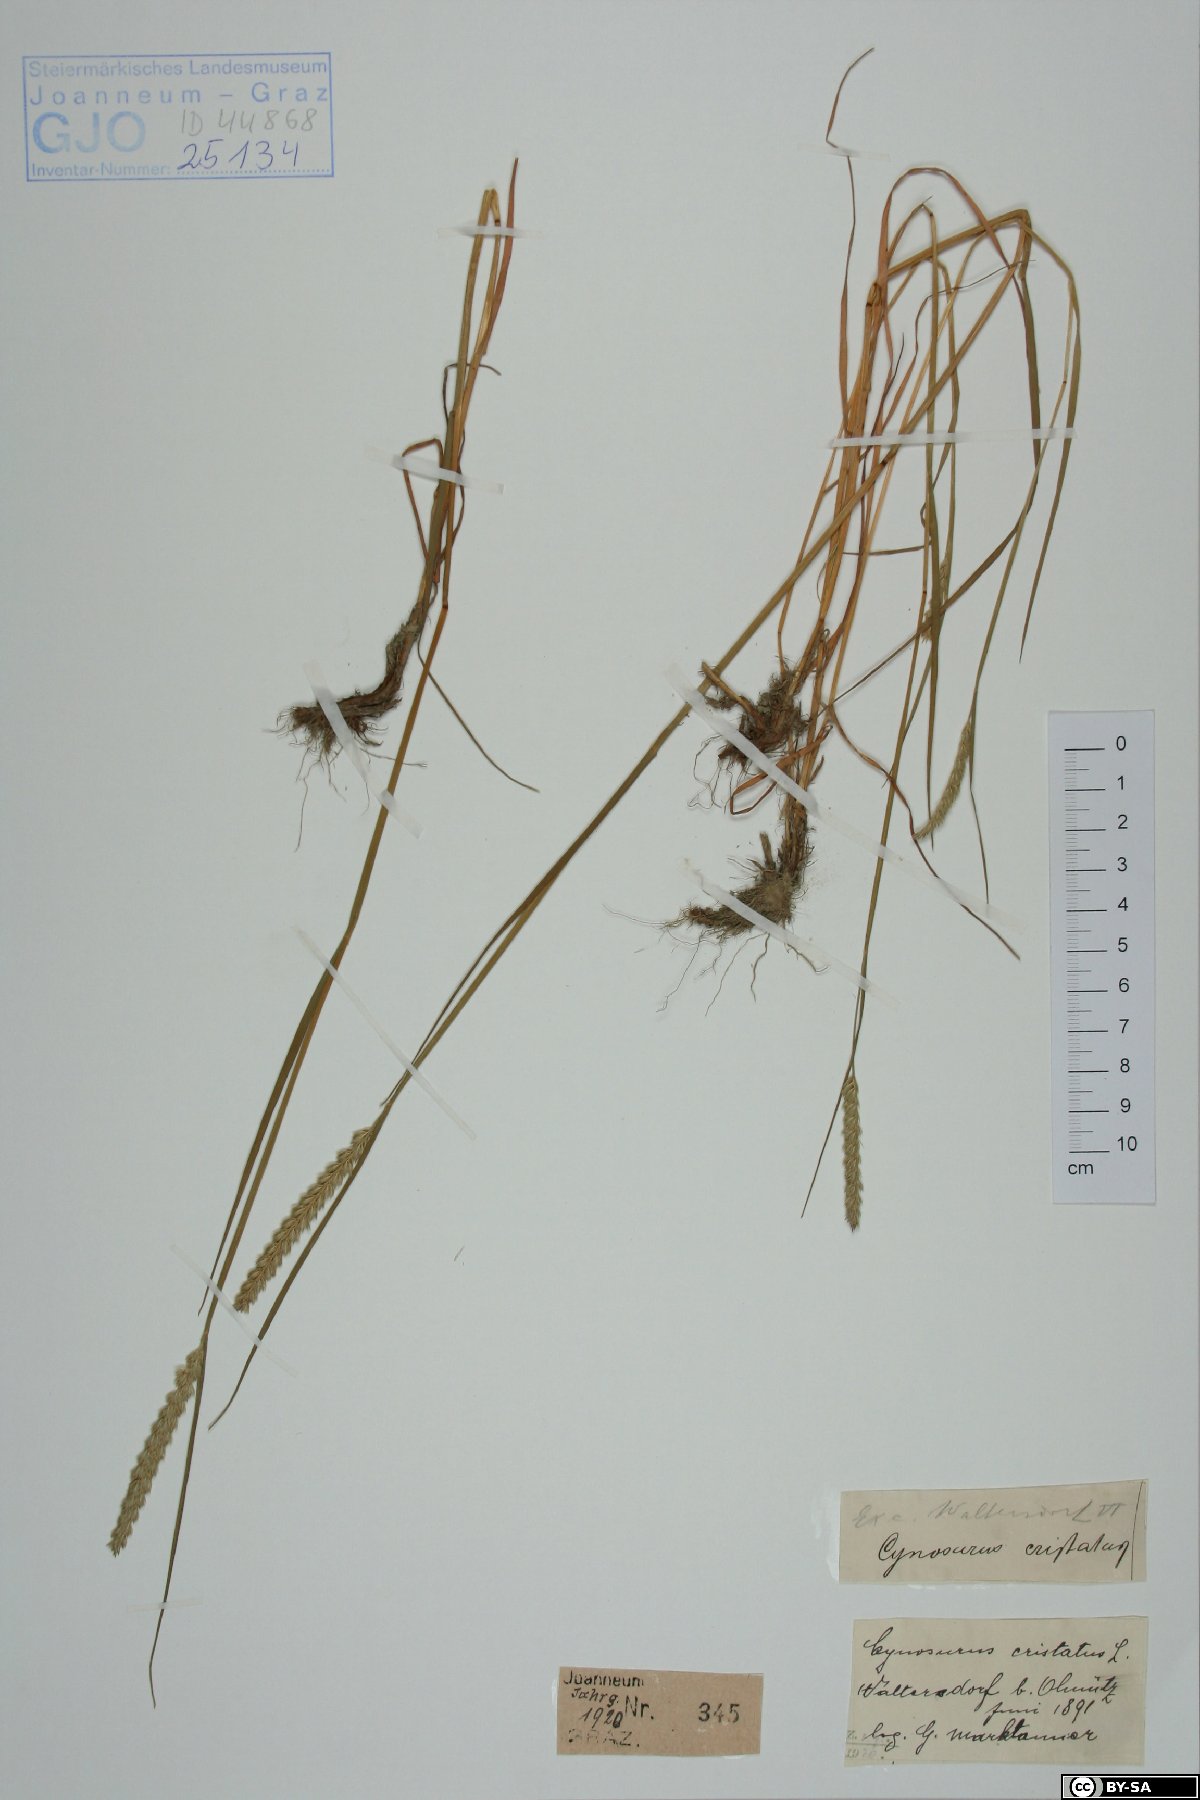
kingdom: Plantae
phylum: Tracheophyta
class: Liliopsida
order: Poales
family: Poaceae
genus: Cynosurus
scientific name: Cynosurus cristatus
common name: Crested dog's-tail
